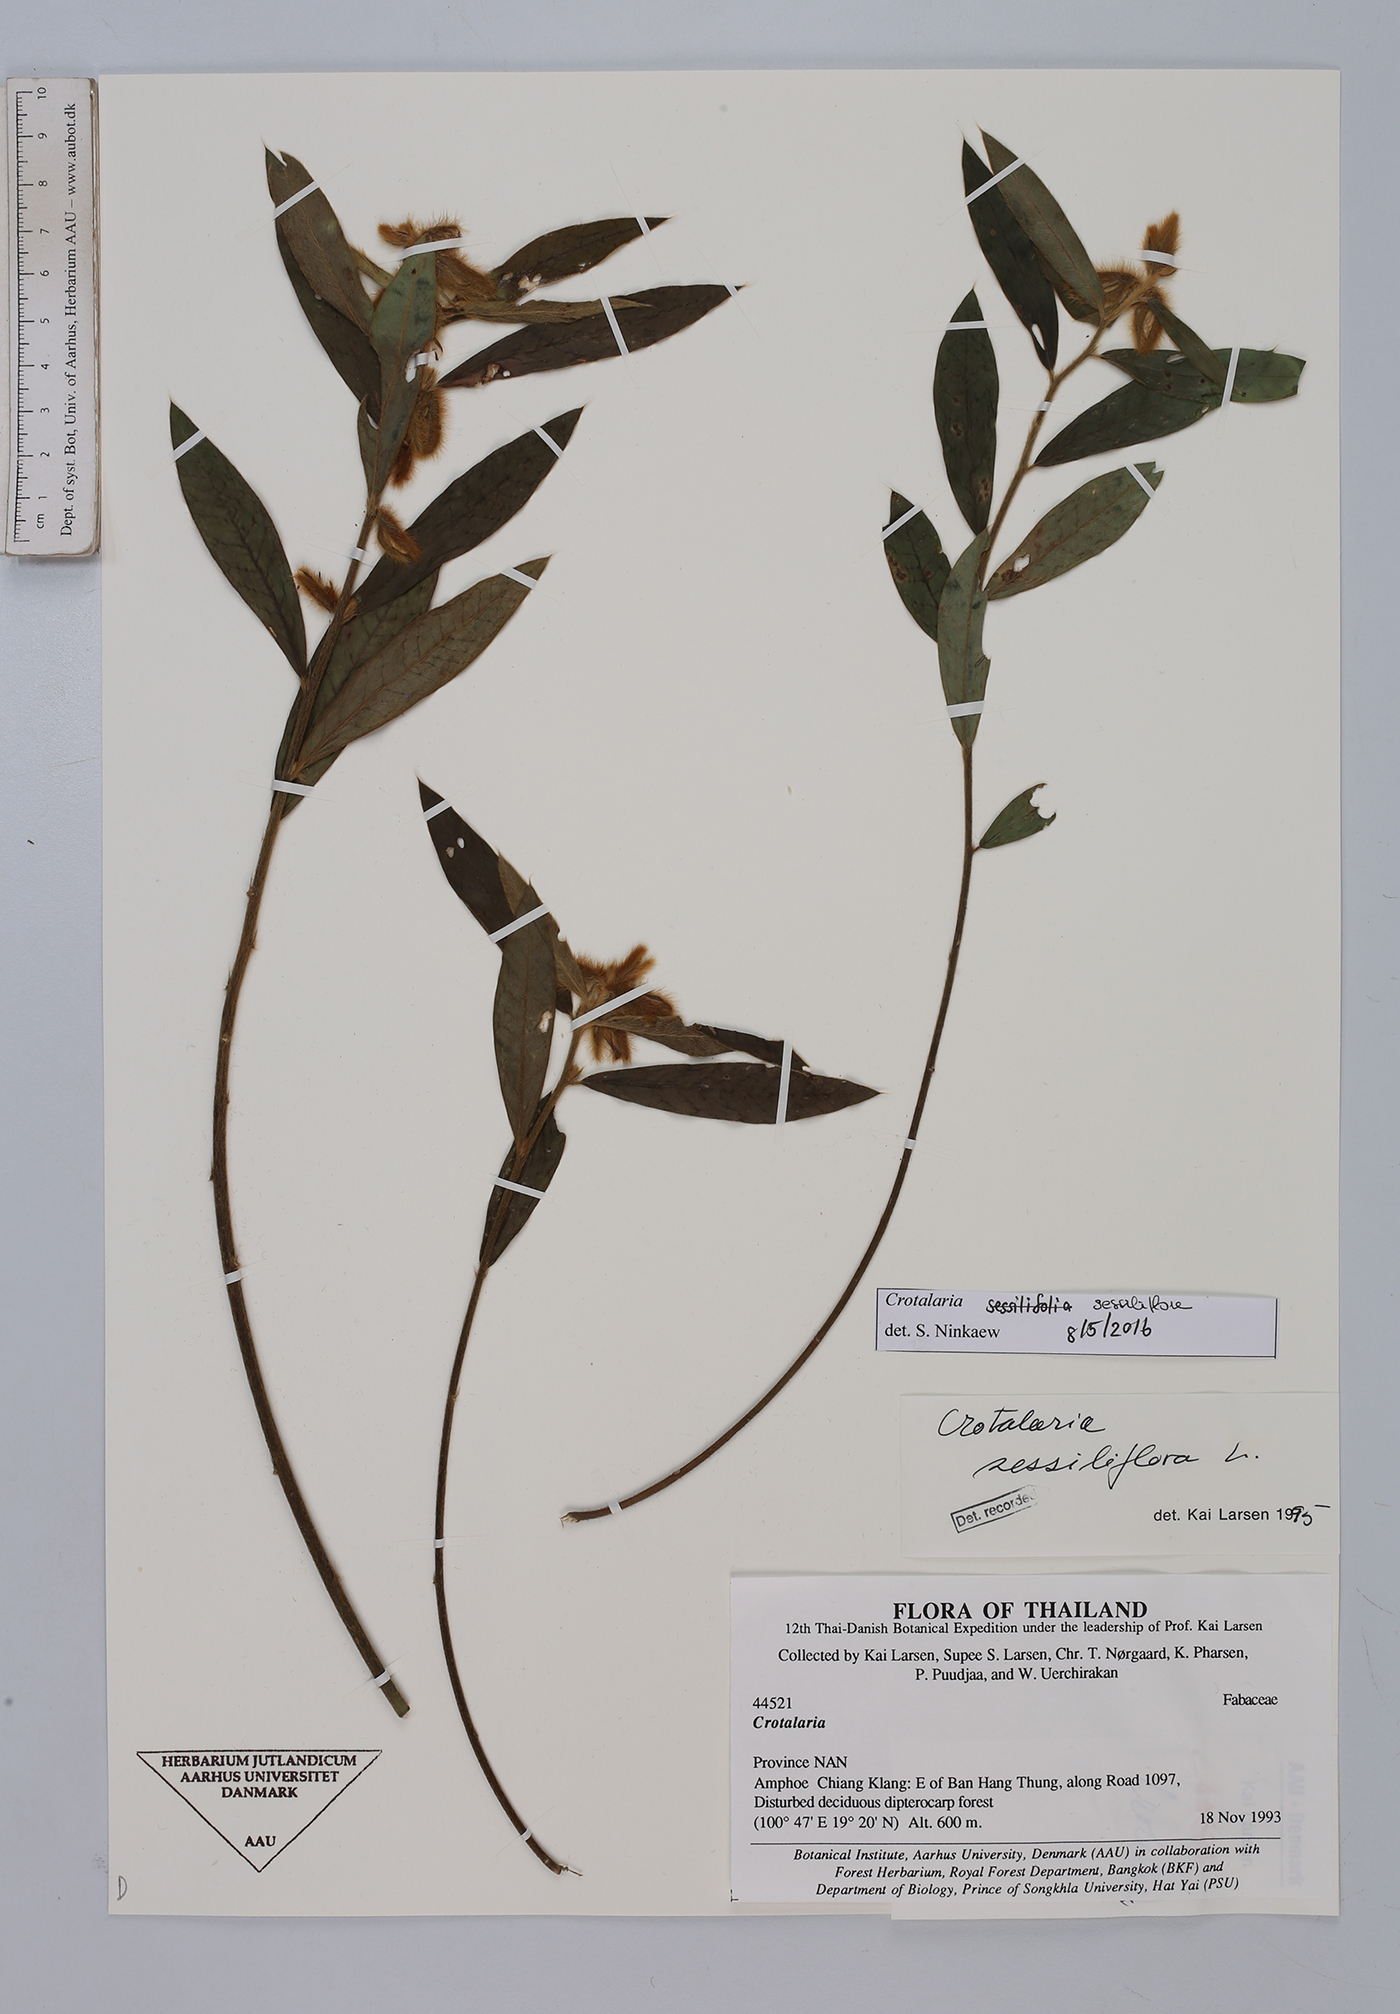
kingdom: Plantae
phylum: Tracheophyta
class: Magnoliopsida
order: Fabales
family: Fabaceae
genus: Crotalaria
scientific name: Crotalaria sessiliflora
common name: Rattlebox
